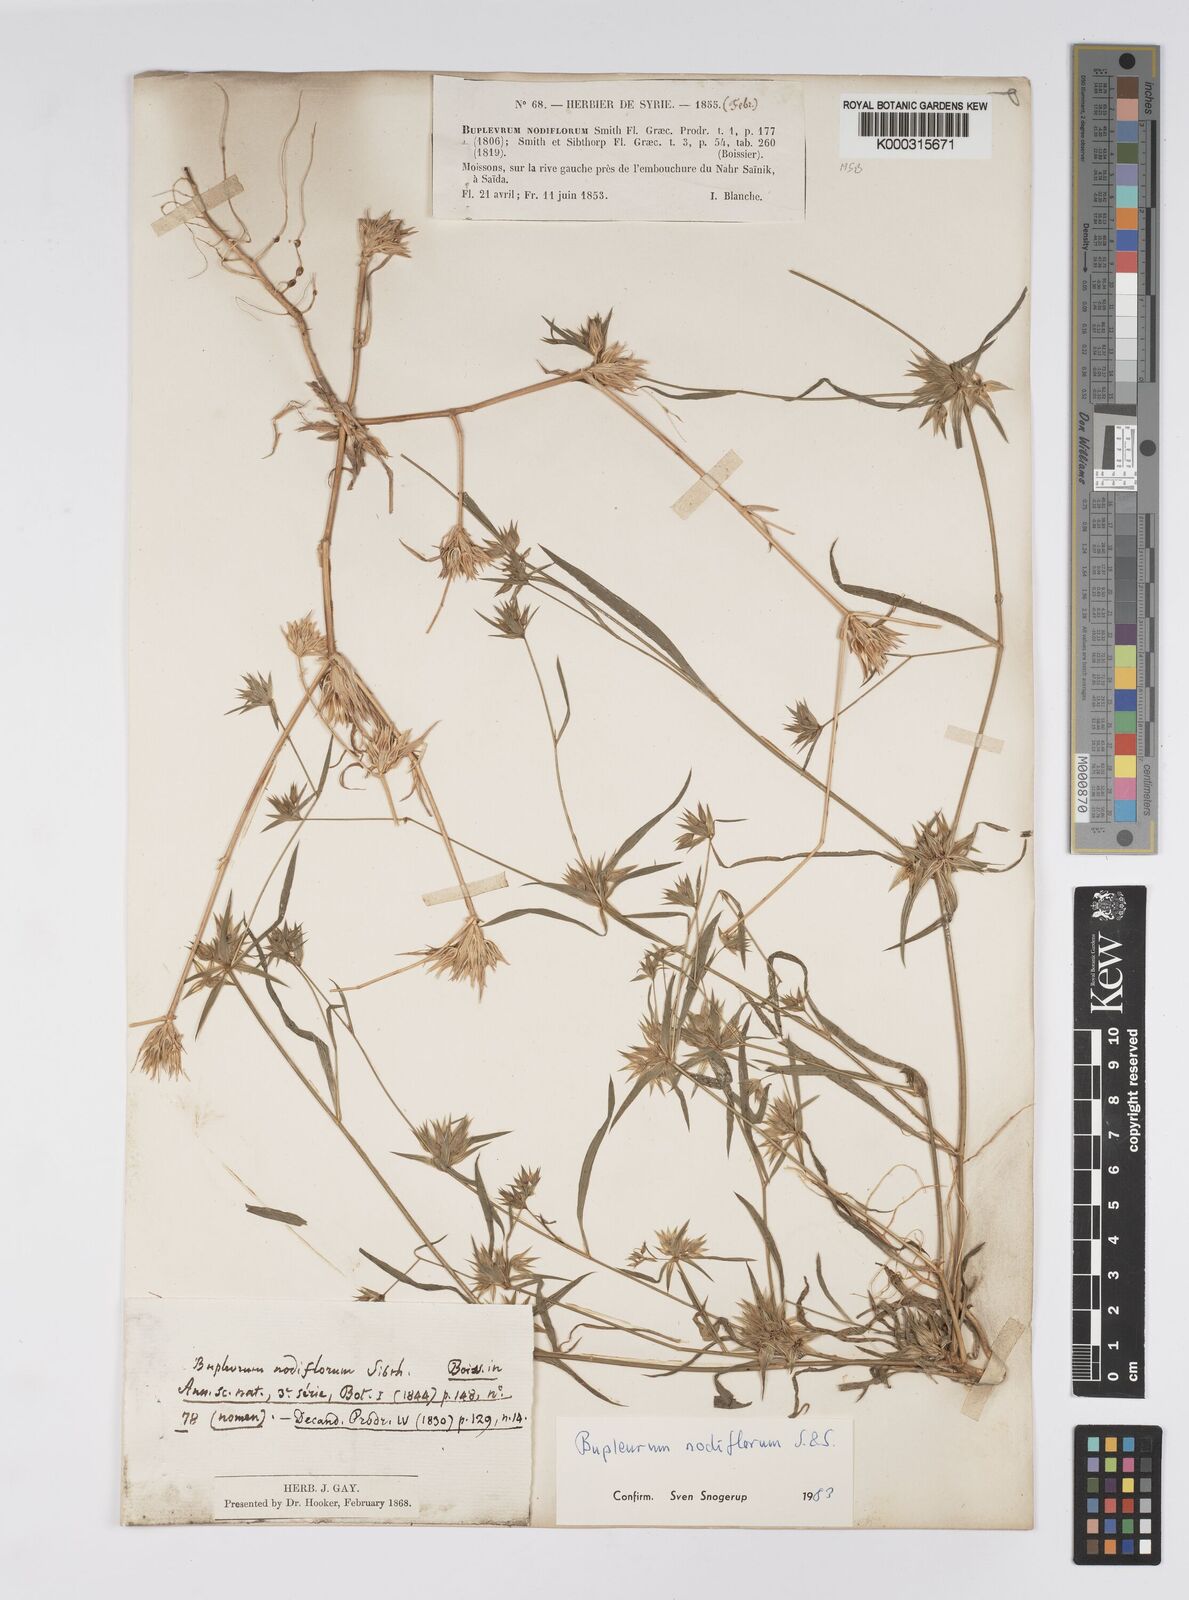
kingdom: Plantae
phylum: Tracheophyta
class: Magnoliopsida
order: Apiales
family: Apiaceae
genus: Bupleurum
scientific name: Bupleurum nodiflorum
